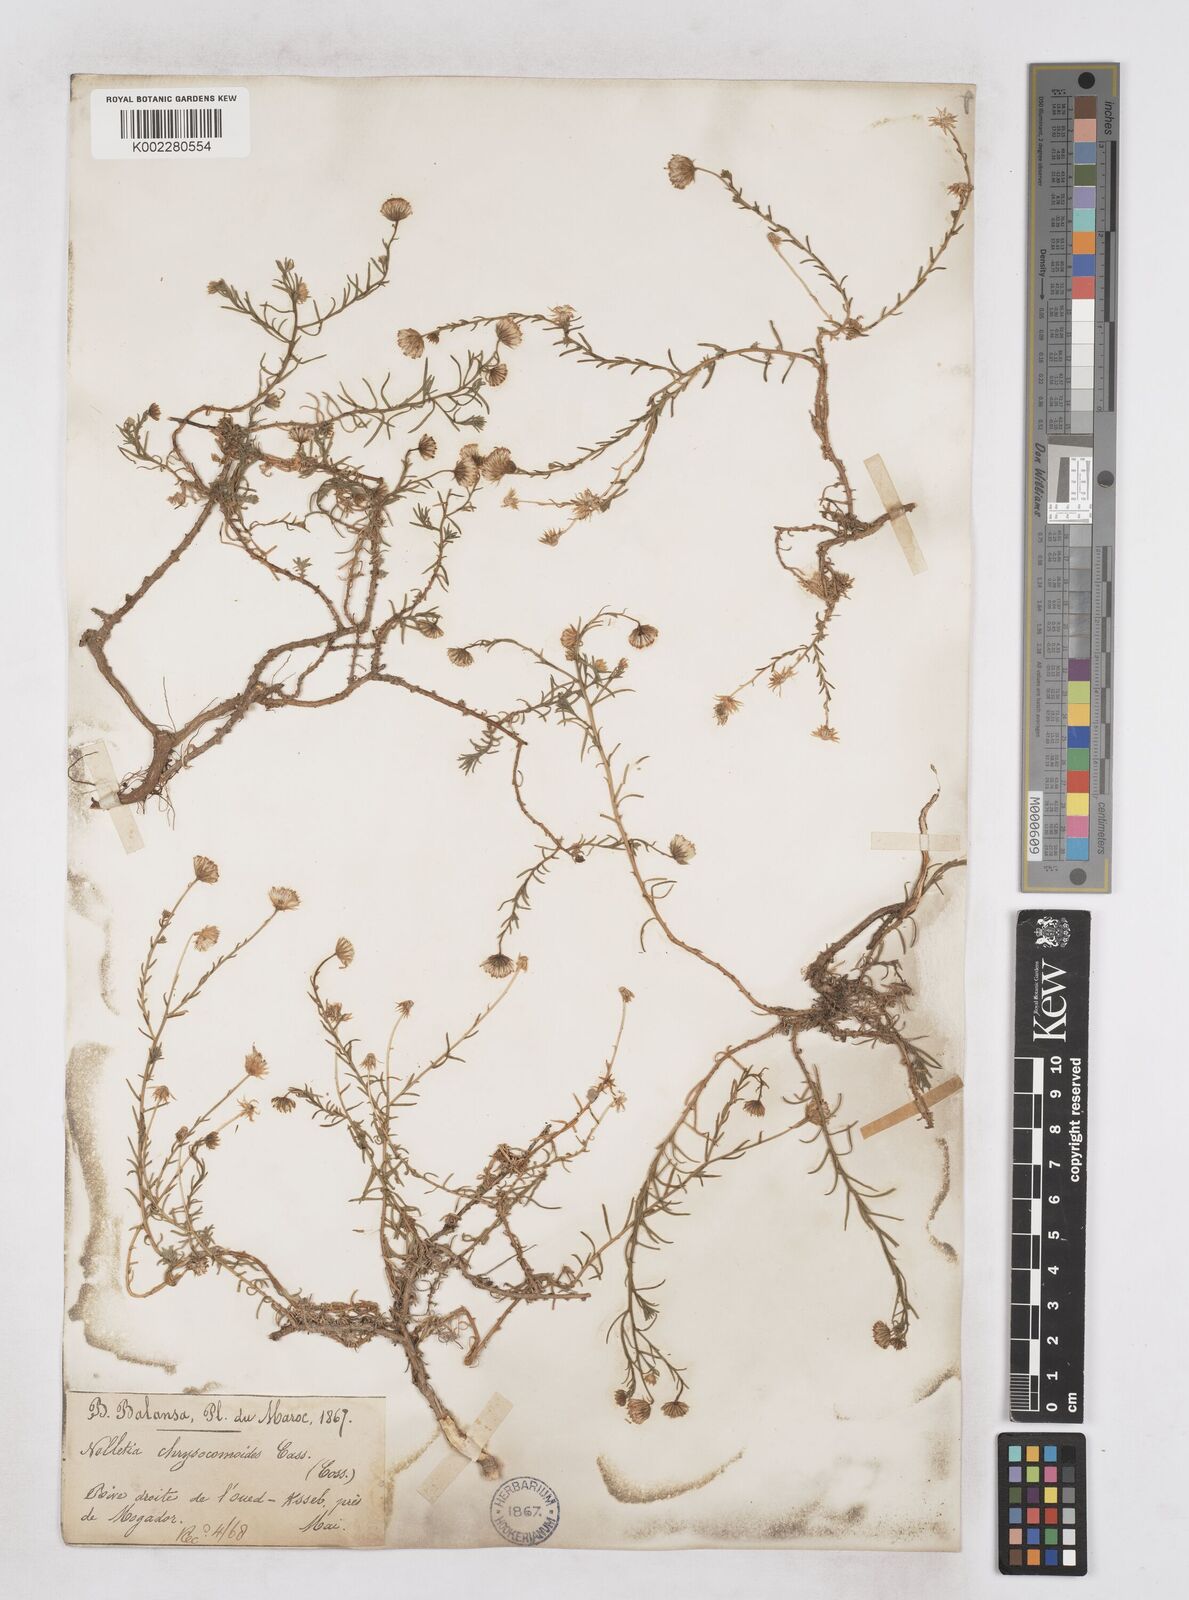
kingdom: Plantae
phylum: Tracheophyta
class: Magnoliopsida
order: Asterales
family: Asteraceae
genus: Nolletia
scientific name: Nolletia chrysocomoides
